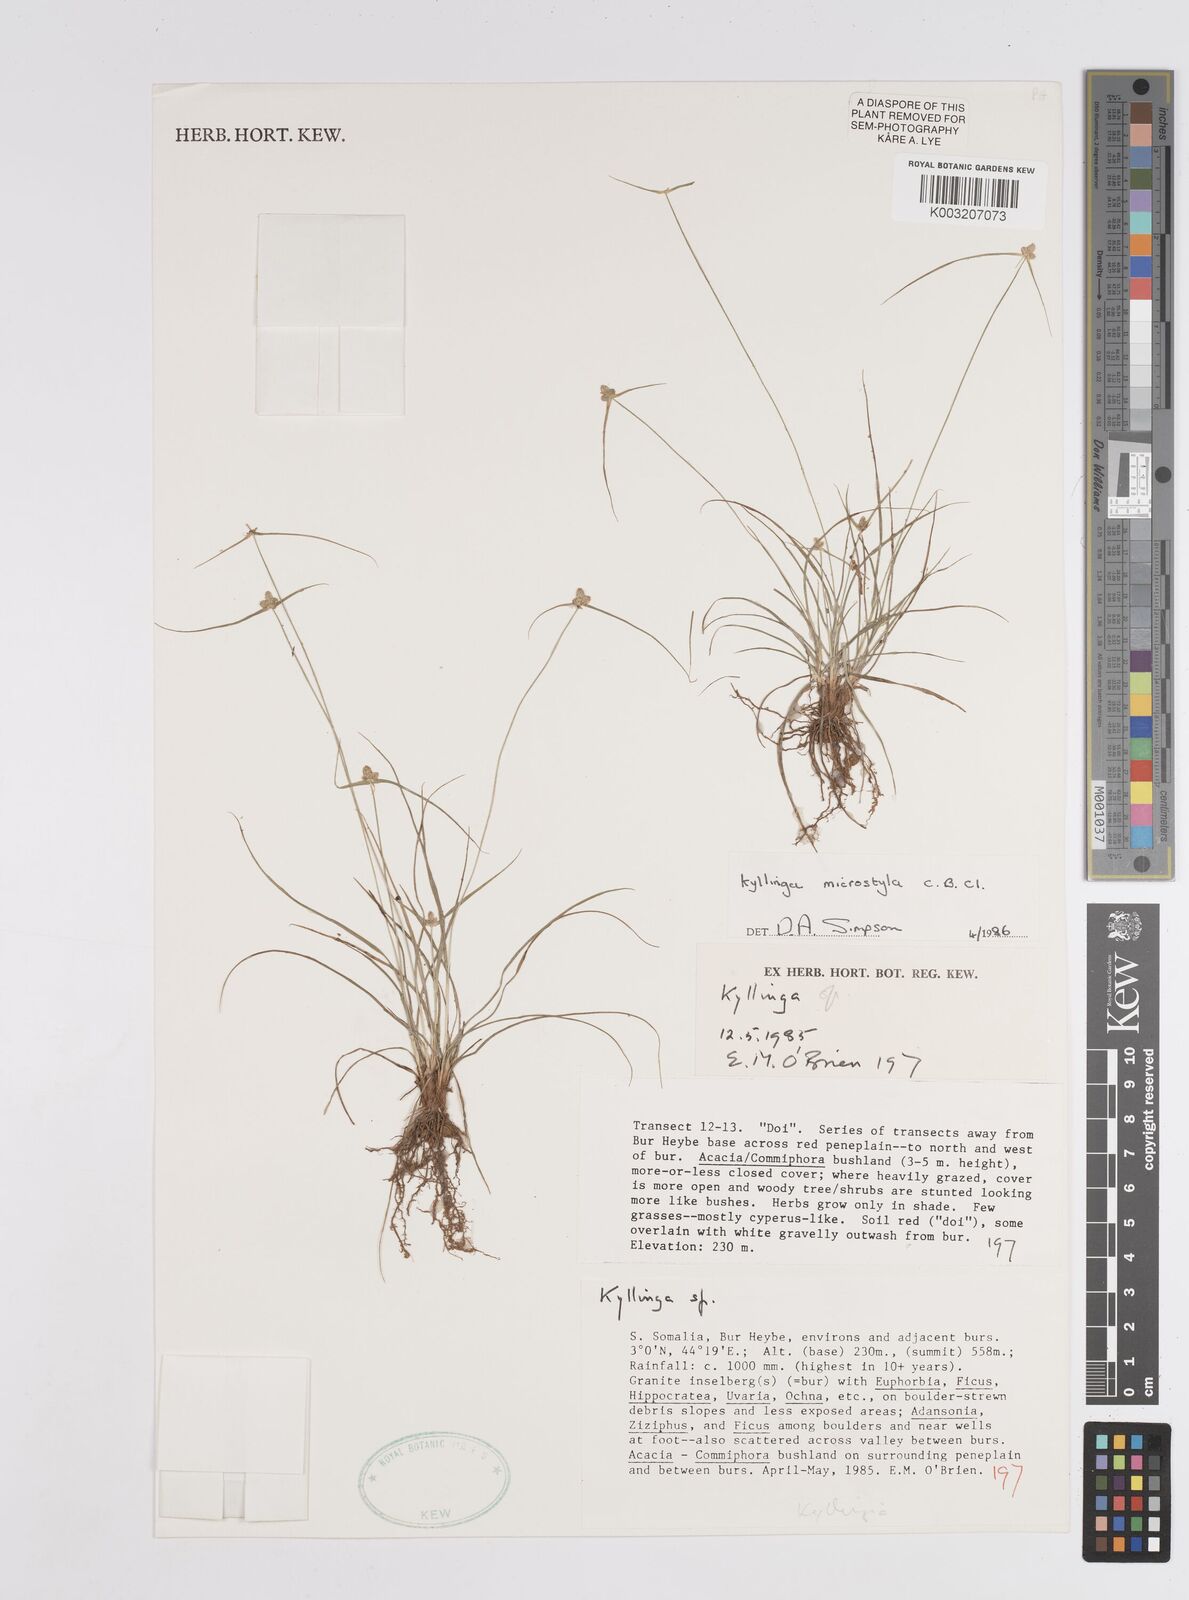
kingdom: Plantae
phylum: Tracheophyta
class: Liliopsida
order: Poales
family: Cyperaceae
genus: Cyperus
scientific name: Cyperus microstylus
